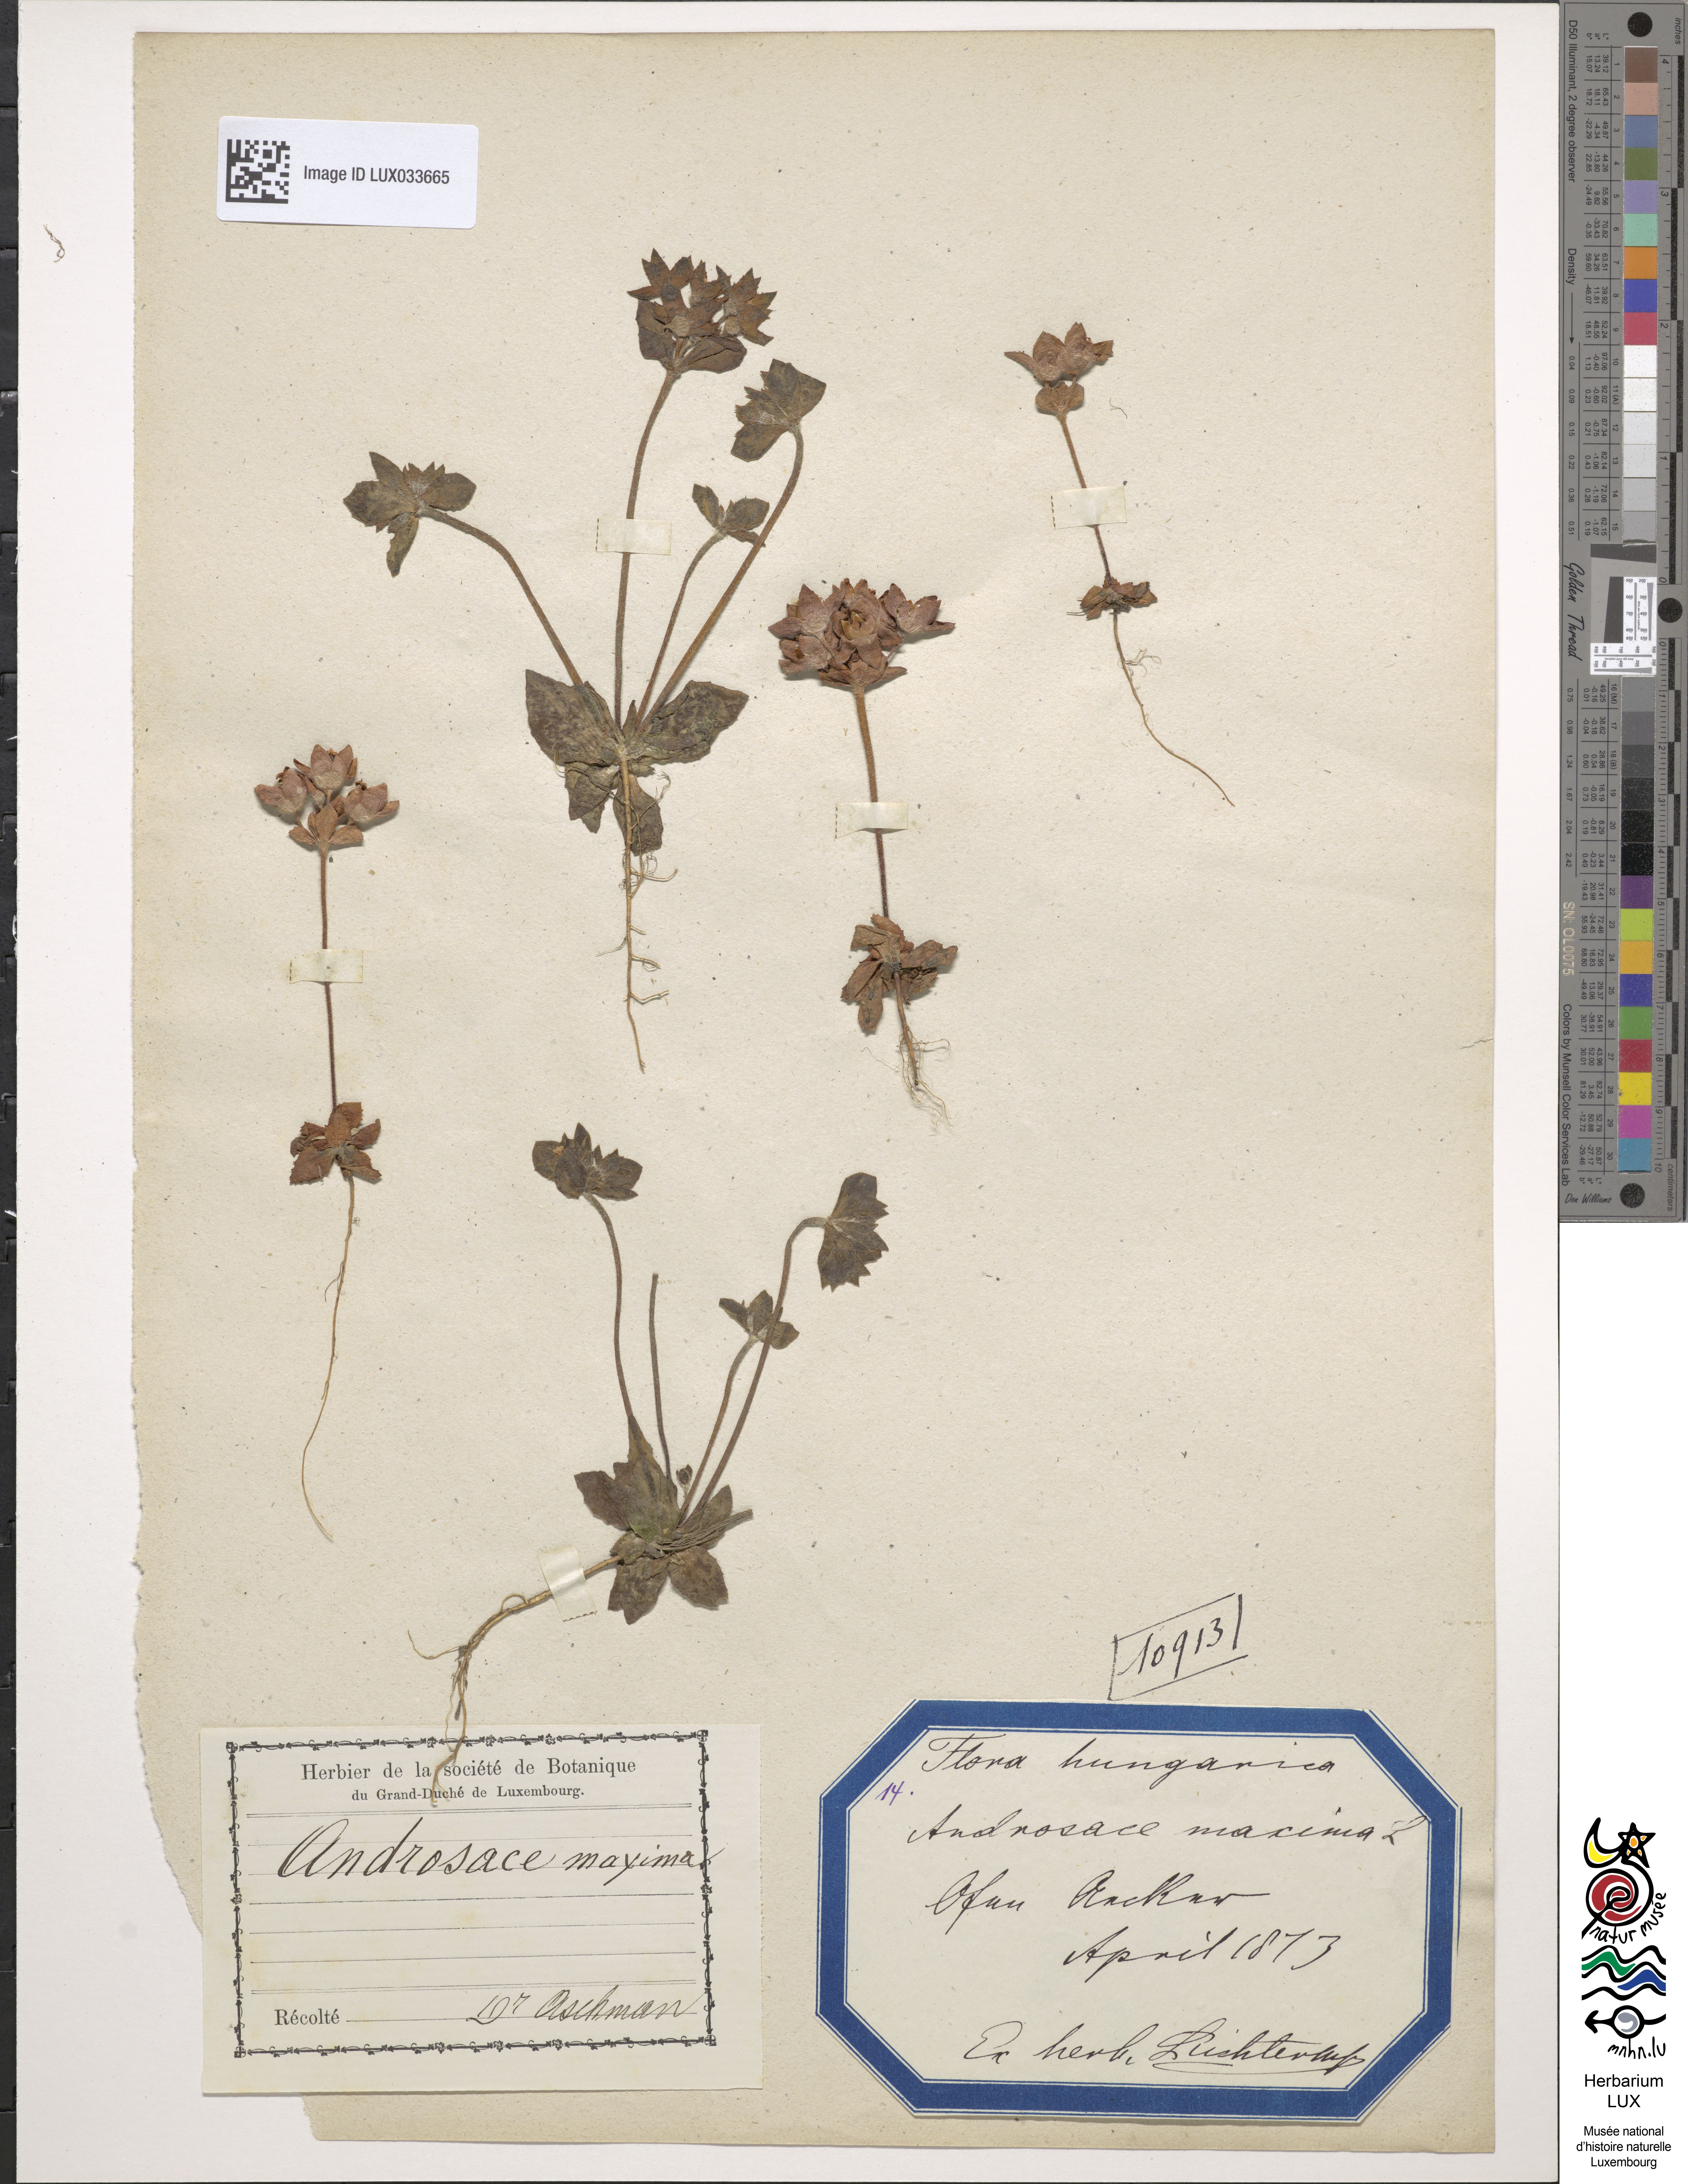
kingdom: Plantae
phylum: Tracheophyta
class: Magnoliopsida
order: Ericales
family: Primulaceae
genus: Androsace
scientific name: Androsace maxima
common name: Annual androsace
